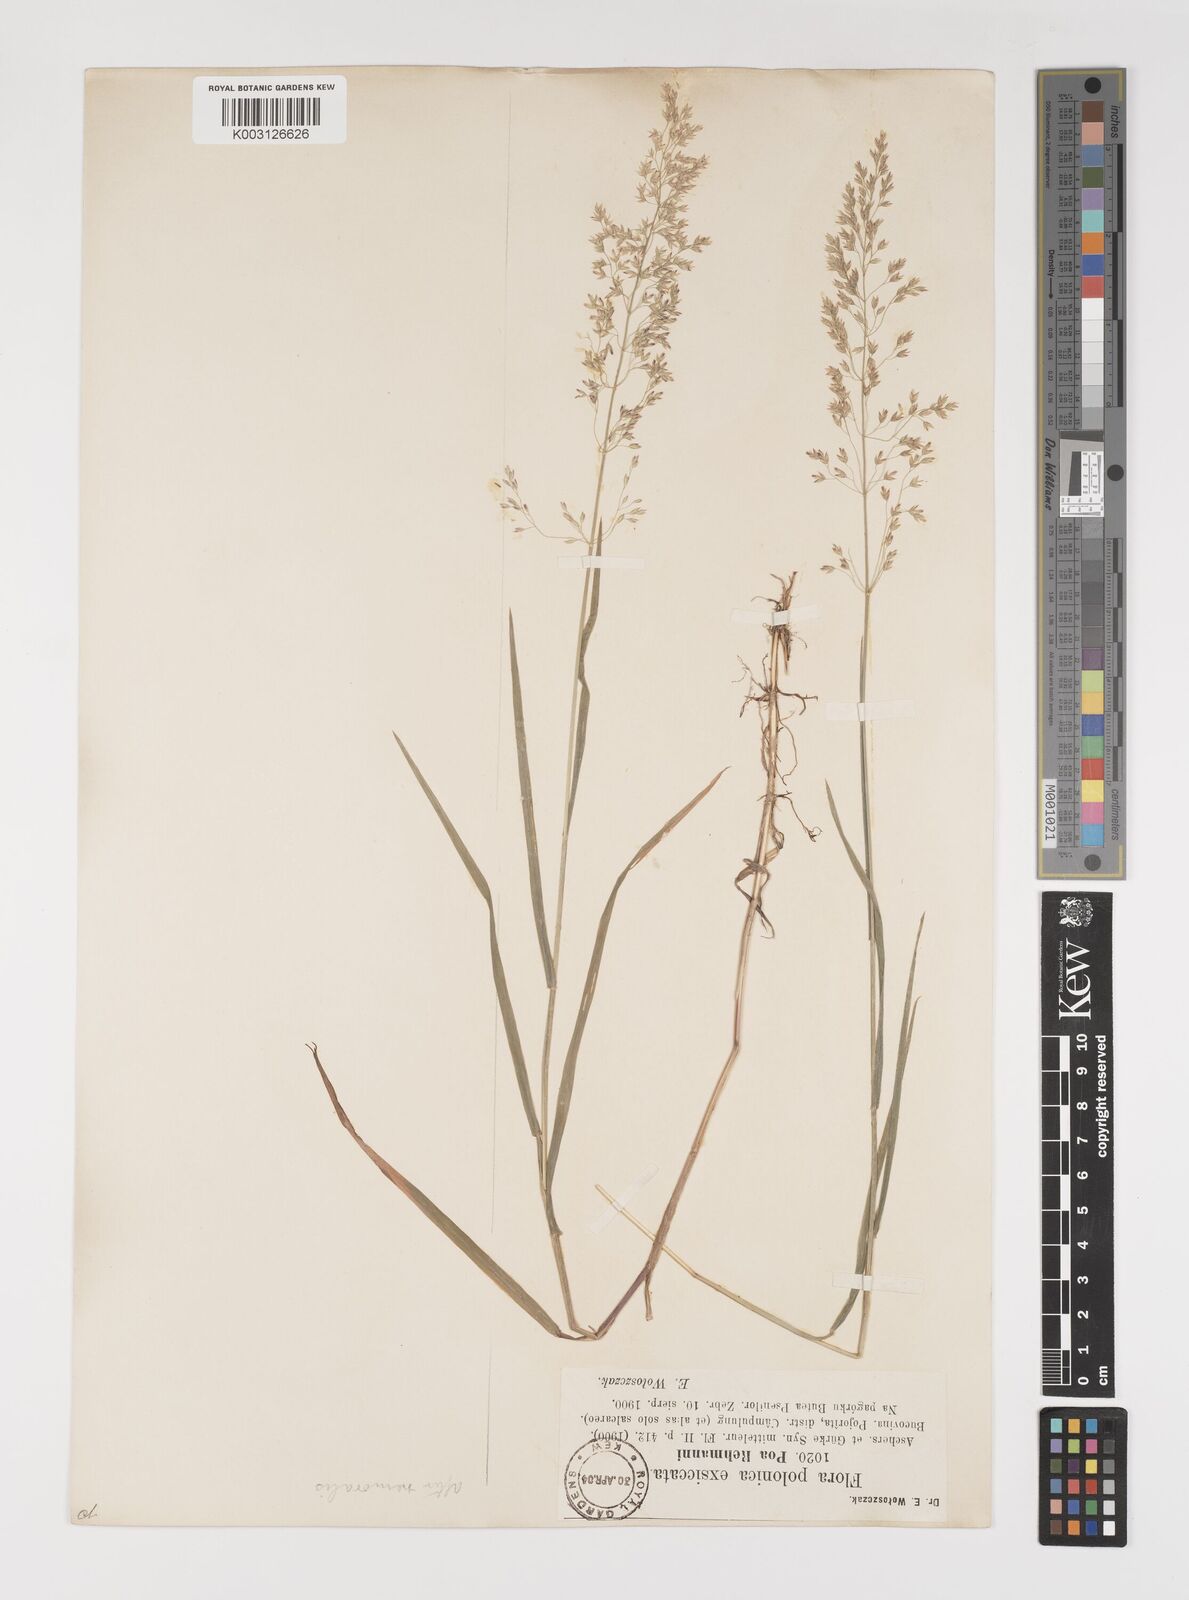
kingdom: Plantae
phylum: Tracheophyta
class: Liliopsida
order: Poales
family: Poaceae
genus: Poa
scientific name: Poa rehmannii
